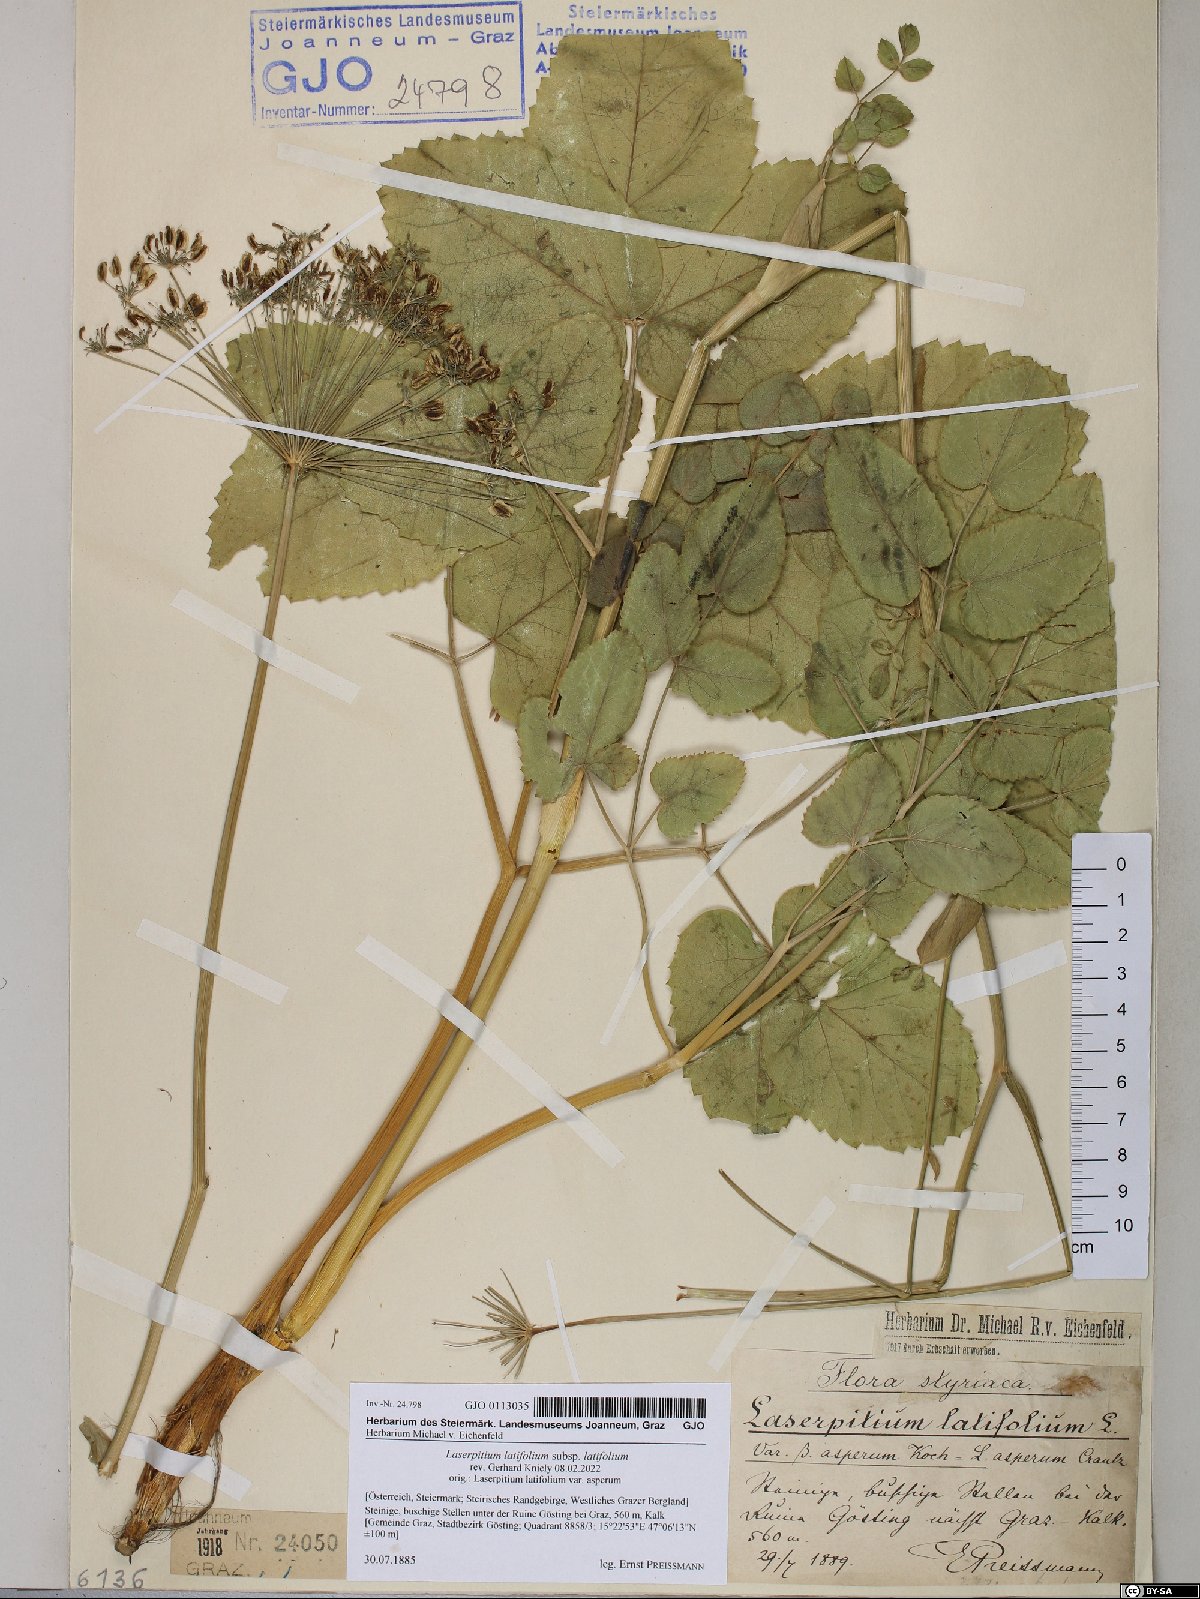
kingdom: Plantae
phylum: Tracheophyta
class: Magnoliopsida
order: Apiales
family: Apiaceae
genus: Laserpitium
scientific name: Laserpitium latifolium
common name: Broadleaf sermountain
